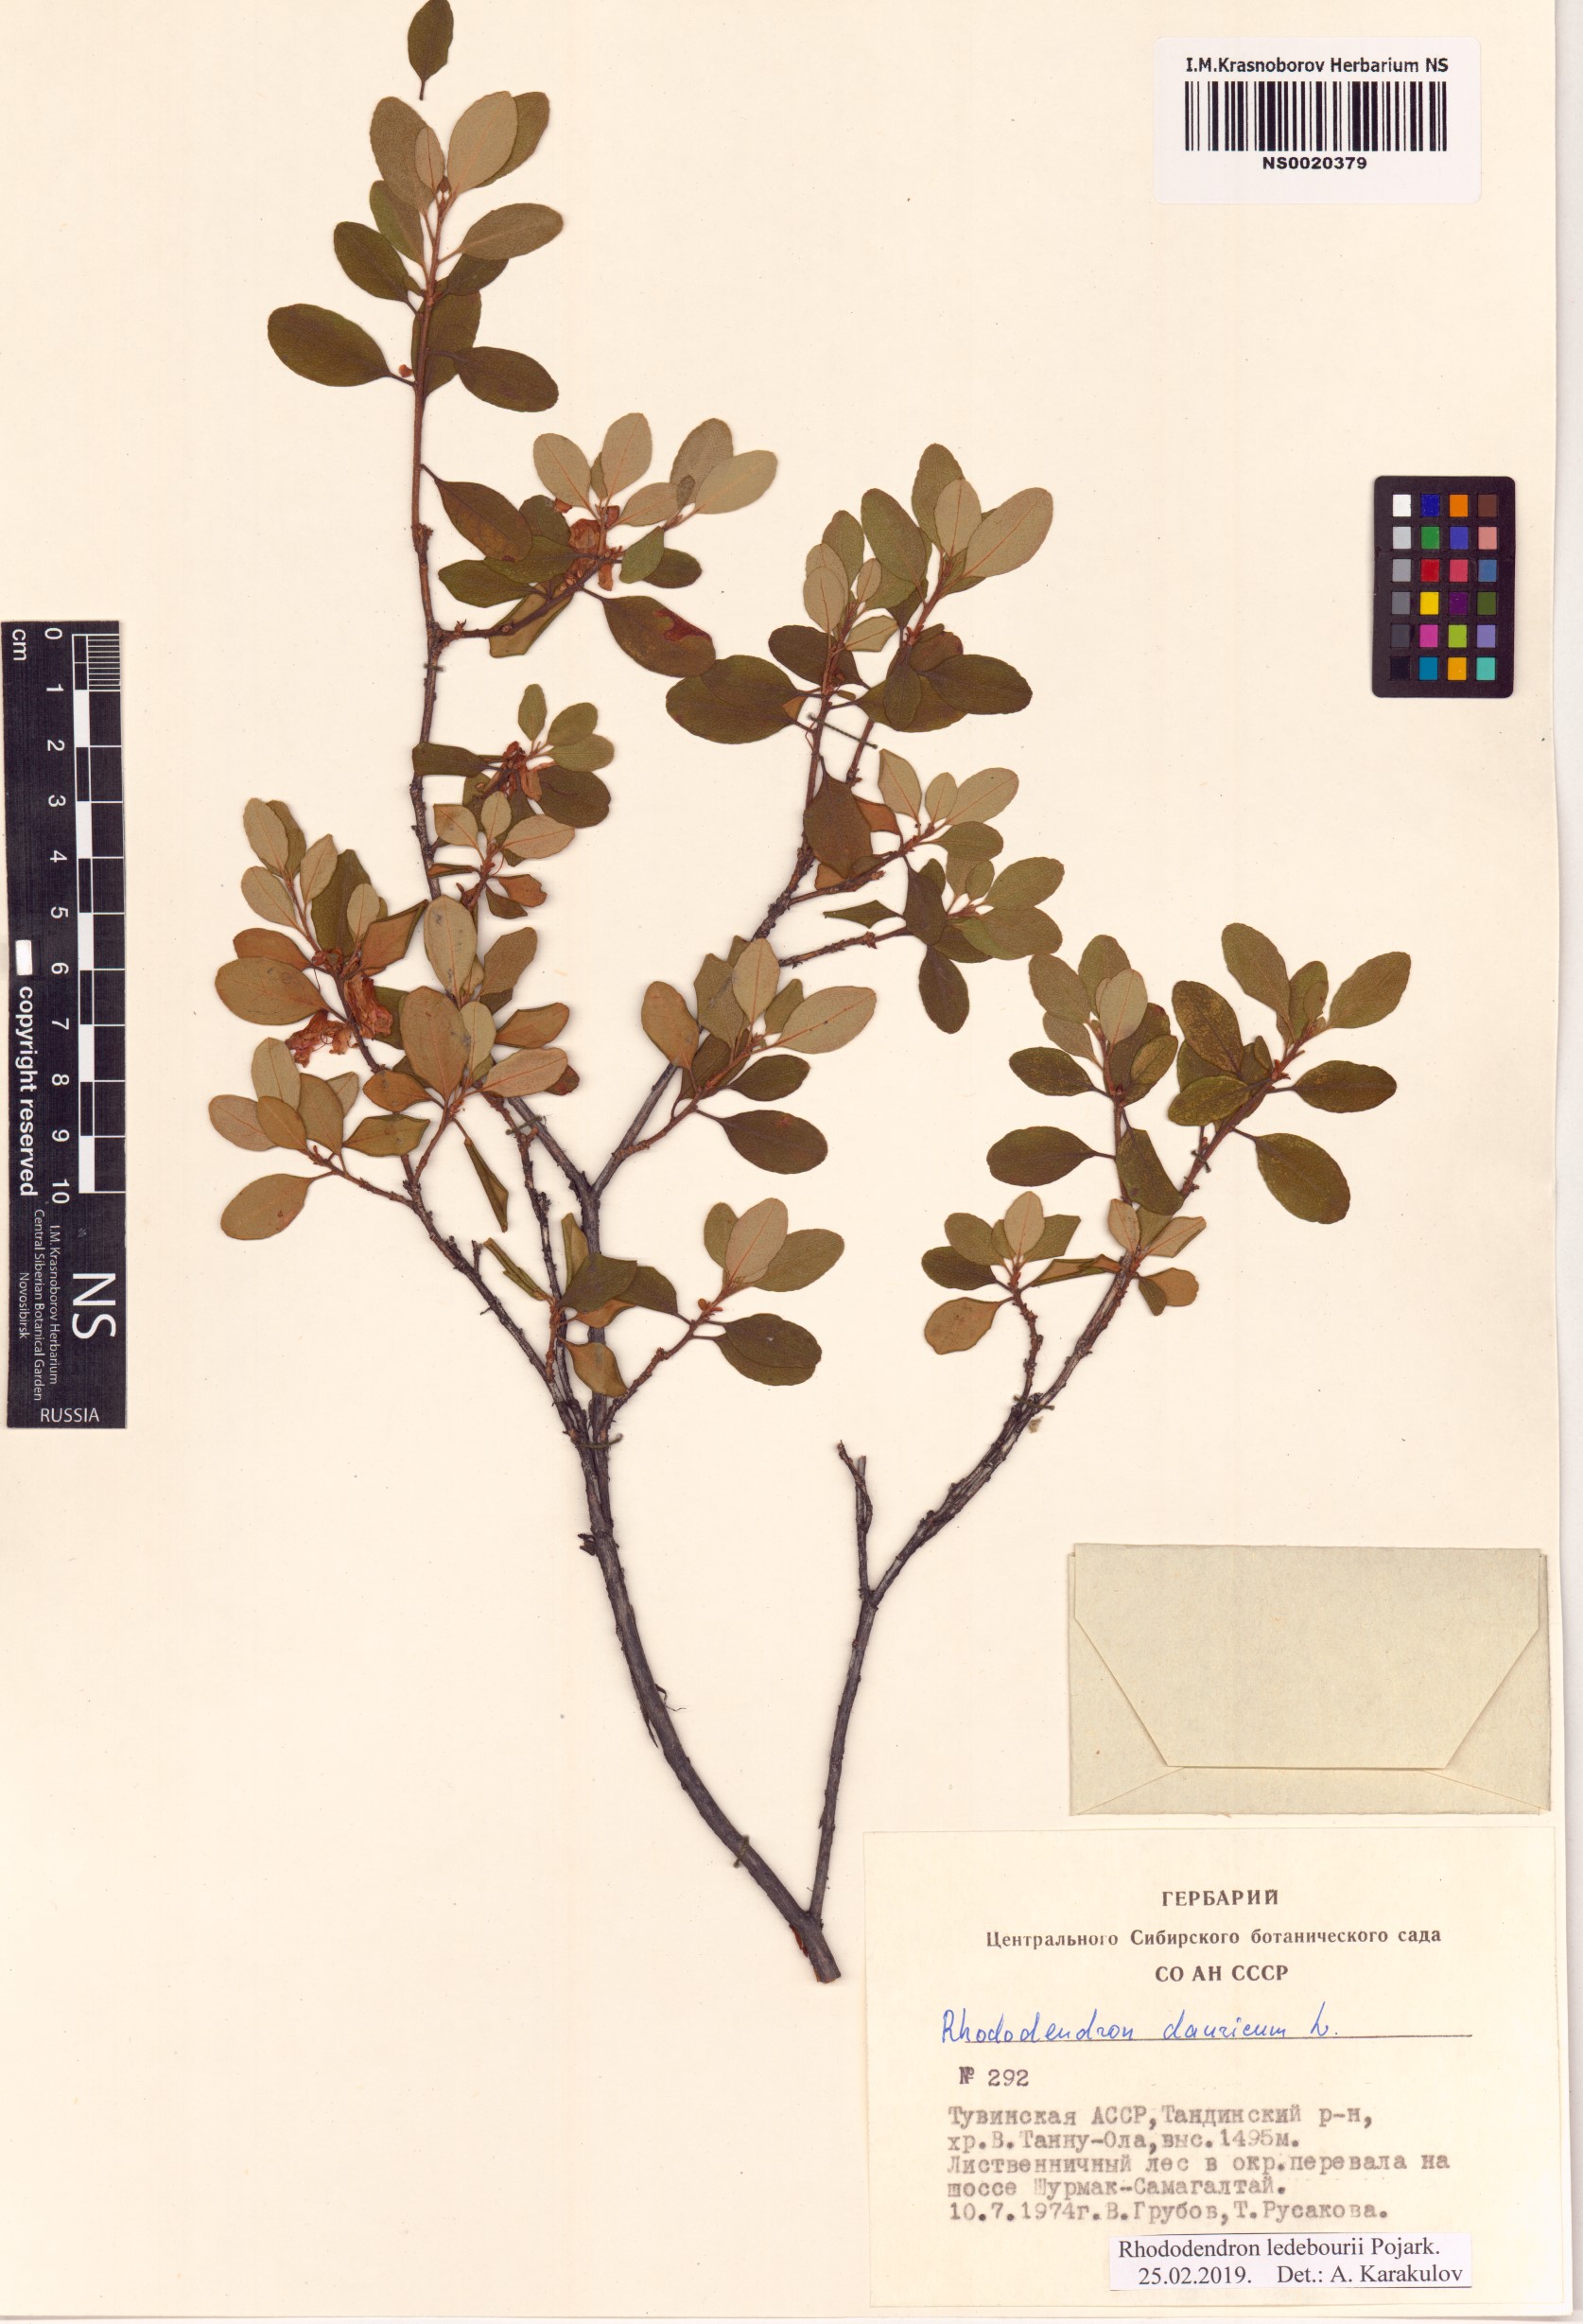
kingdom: Plantae
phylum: Tracheophyta
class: Magnoliopsida
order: Ericales
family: Ericaceae
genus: Rhododendron
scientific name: Rhododendron dauricum
